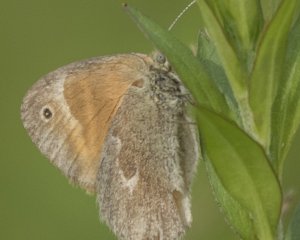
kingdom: Animalia
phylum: Arthropoda
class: Insecta
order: Lepidoptera
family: Nymphalidae
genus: Coenonympha
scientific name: Coenonympha tullia
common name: Large Heath
